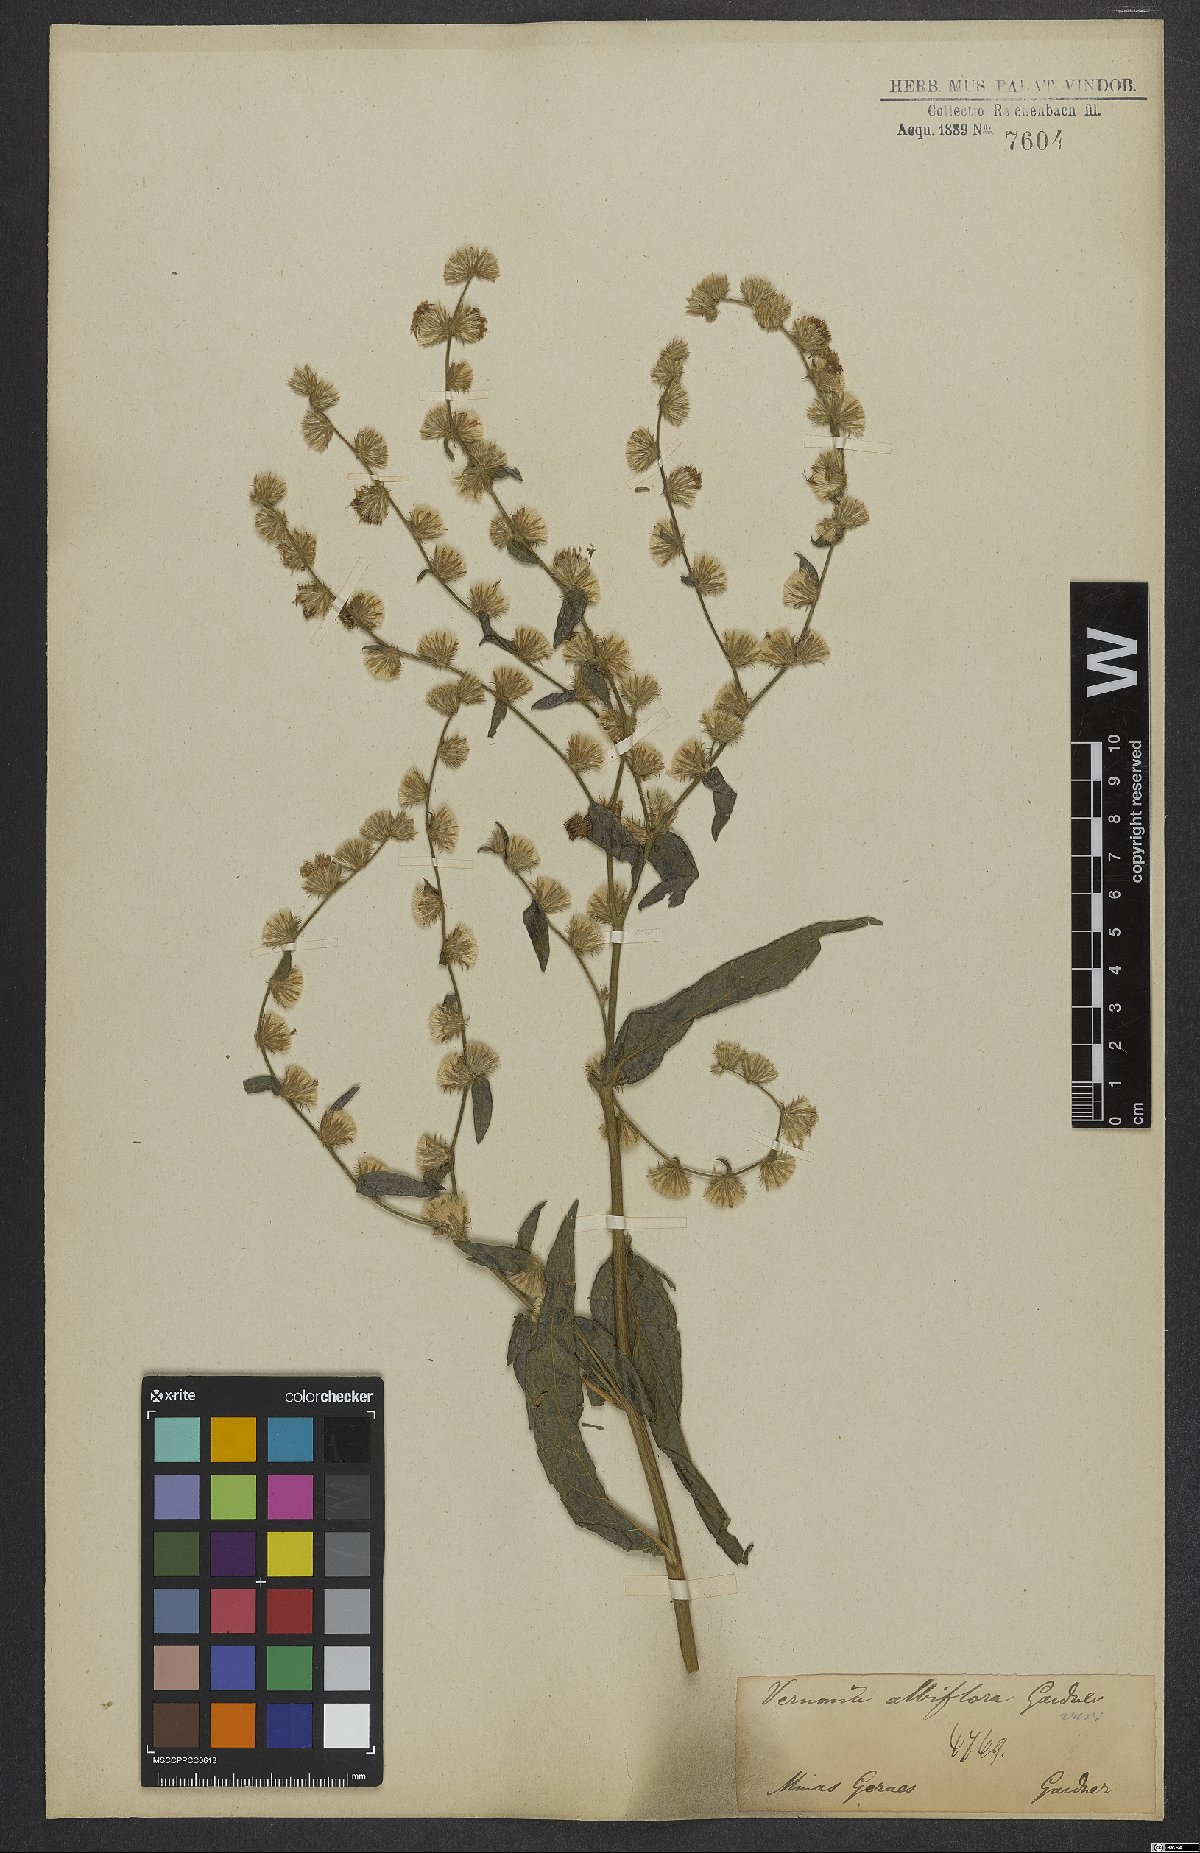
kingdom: Plantae
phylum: Tracheophyta
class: Magnoliopsida
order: Asterales
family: Asteraceae
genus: Lepidaploa
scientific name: Lepidaploa subsquarrosa
